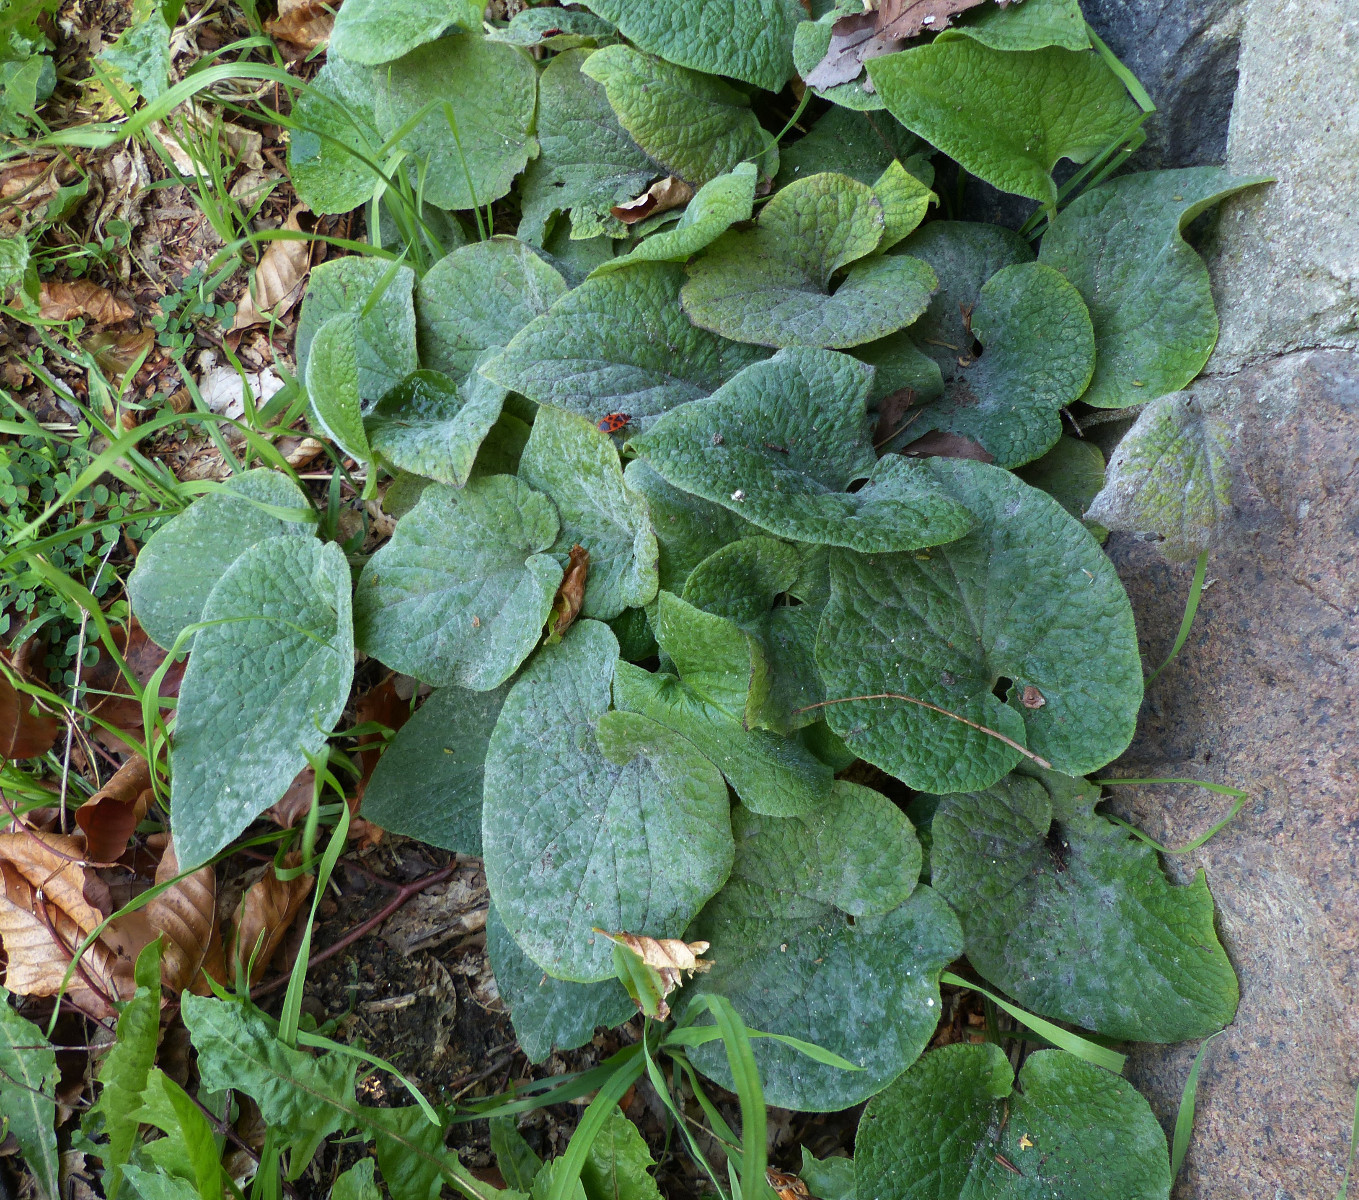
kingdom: Fungi
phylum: Ascomycota
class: Leotiomycetes
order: Helotiales
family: Erysiphaceae
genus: Golovinomyces
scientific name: Golovinomyces
